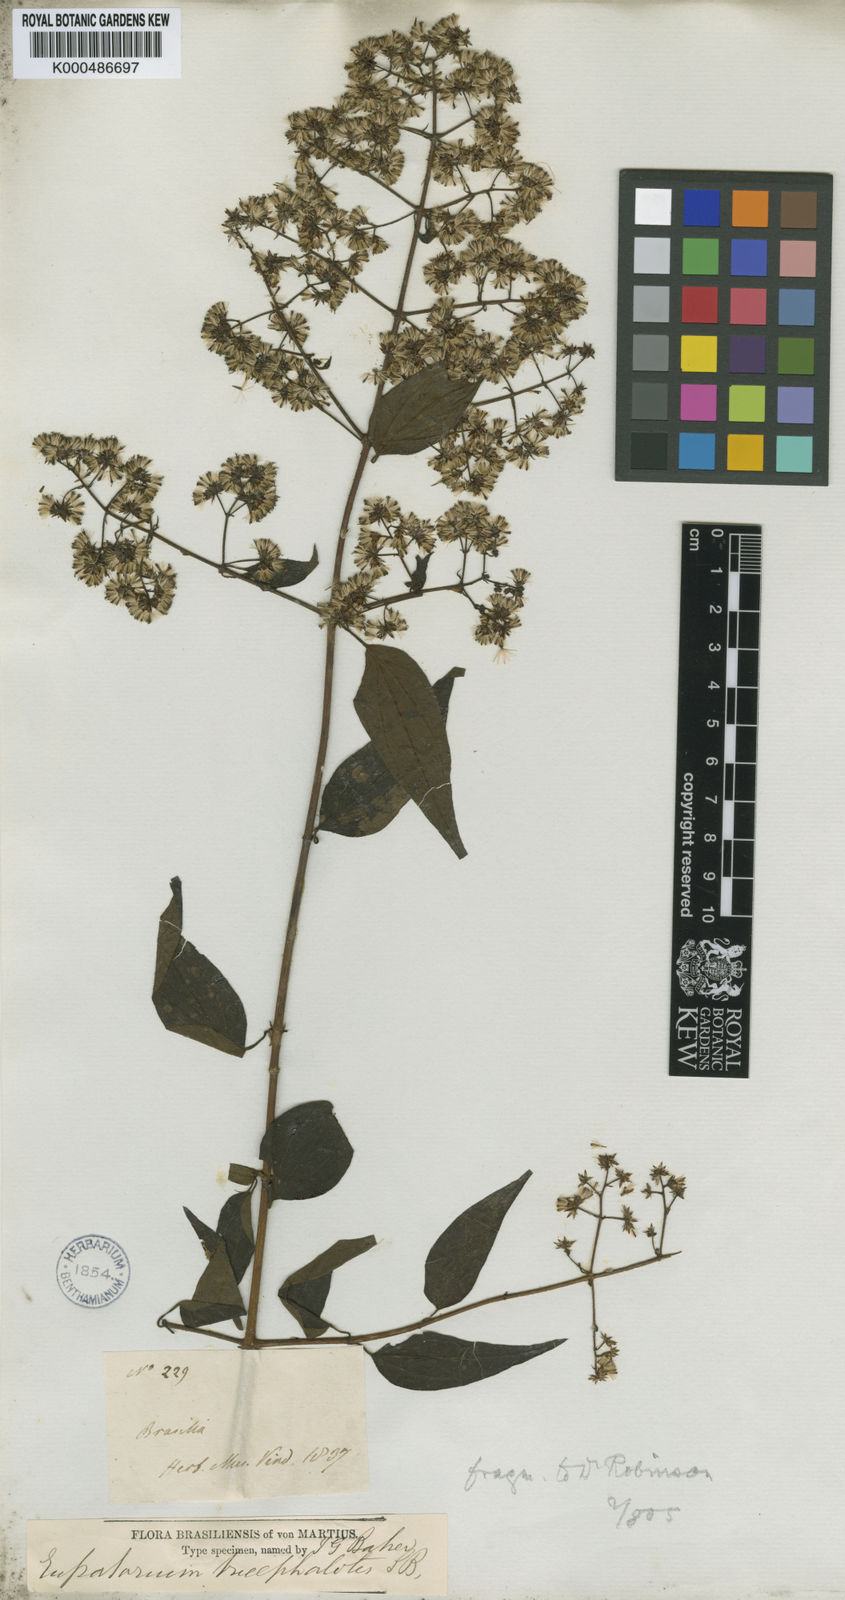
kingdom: Plantae
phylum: Tracheophyta
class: Magnoliopsida
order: Asterales
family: Asteraceae
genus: Koanophyllon
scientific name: Koanophyllon tricephalotes
